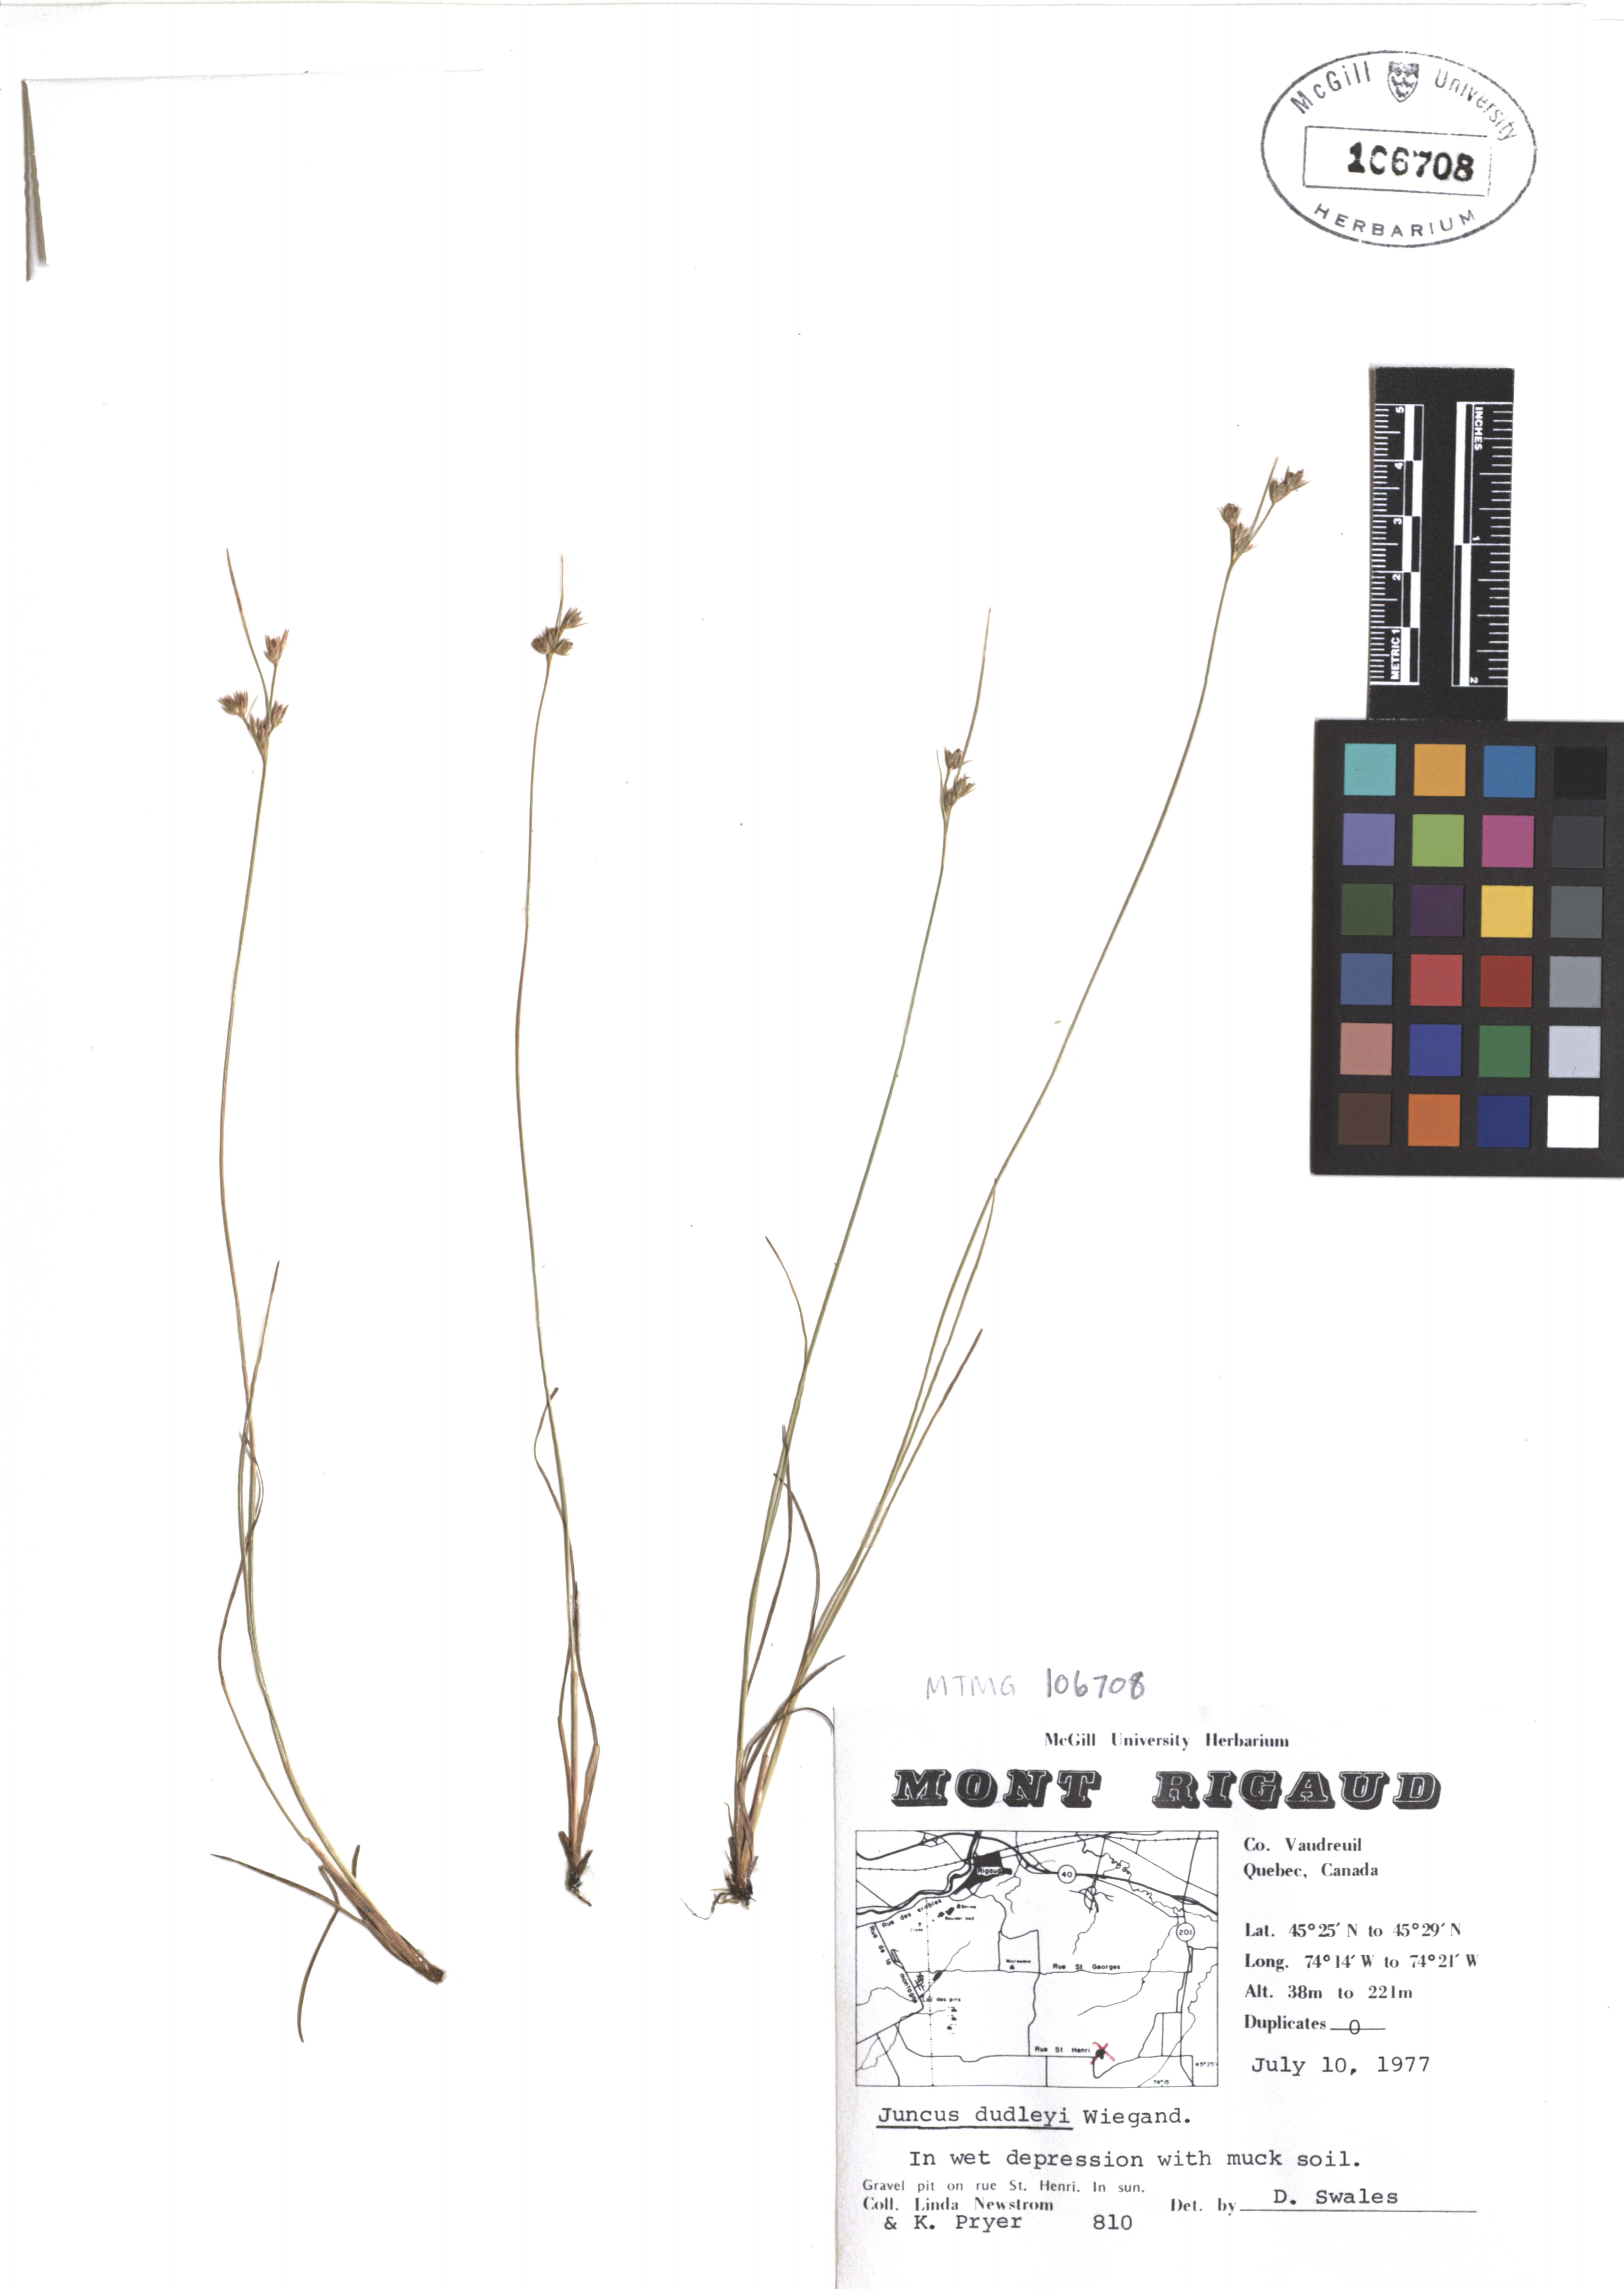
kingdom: Plantae
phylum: Tracheophyta
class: Liliopsida
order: Poales
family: Juncaceae
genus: Juncus
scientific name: Juncus dudleyi
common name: Dudley's rush
